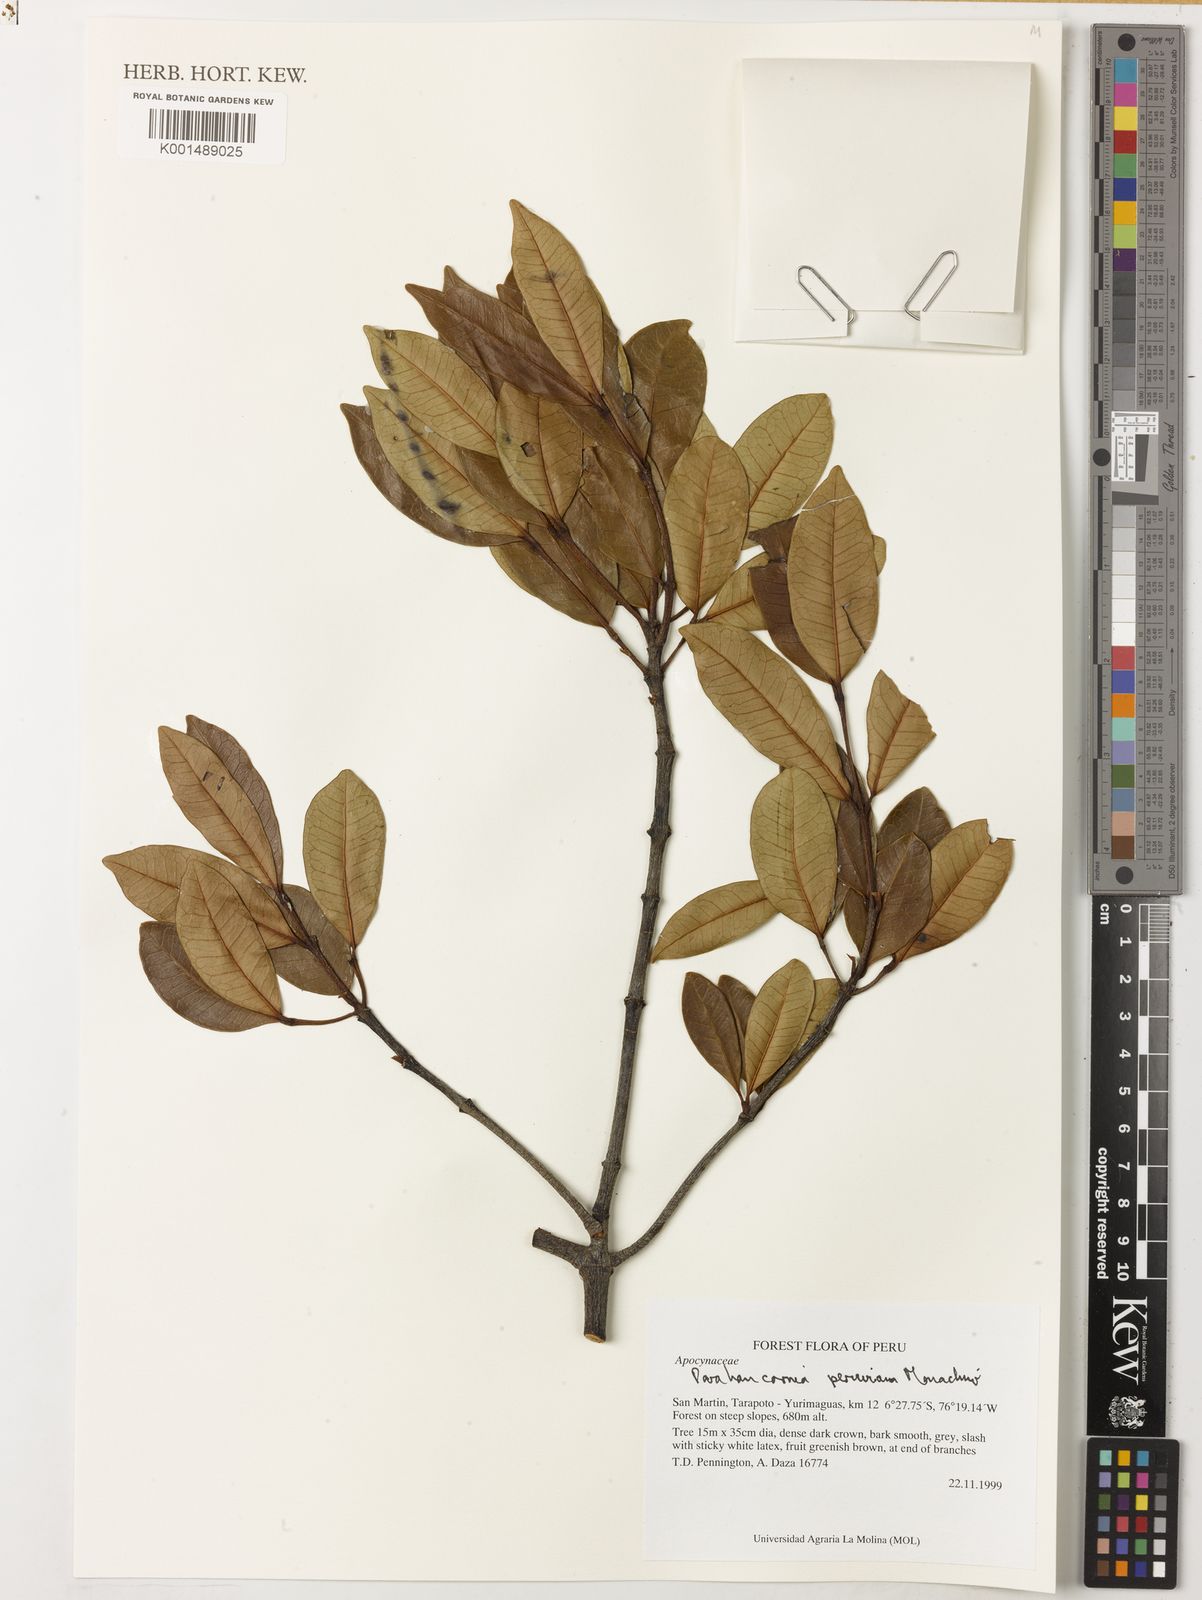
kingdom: Plantae
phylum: Tracheophyta
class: Magnoliopsida
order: Gentianales
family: Apocynaceae
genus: Parahancornia
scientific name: Parahancornia peruviana
